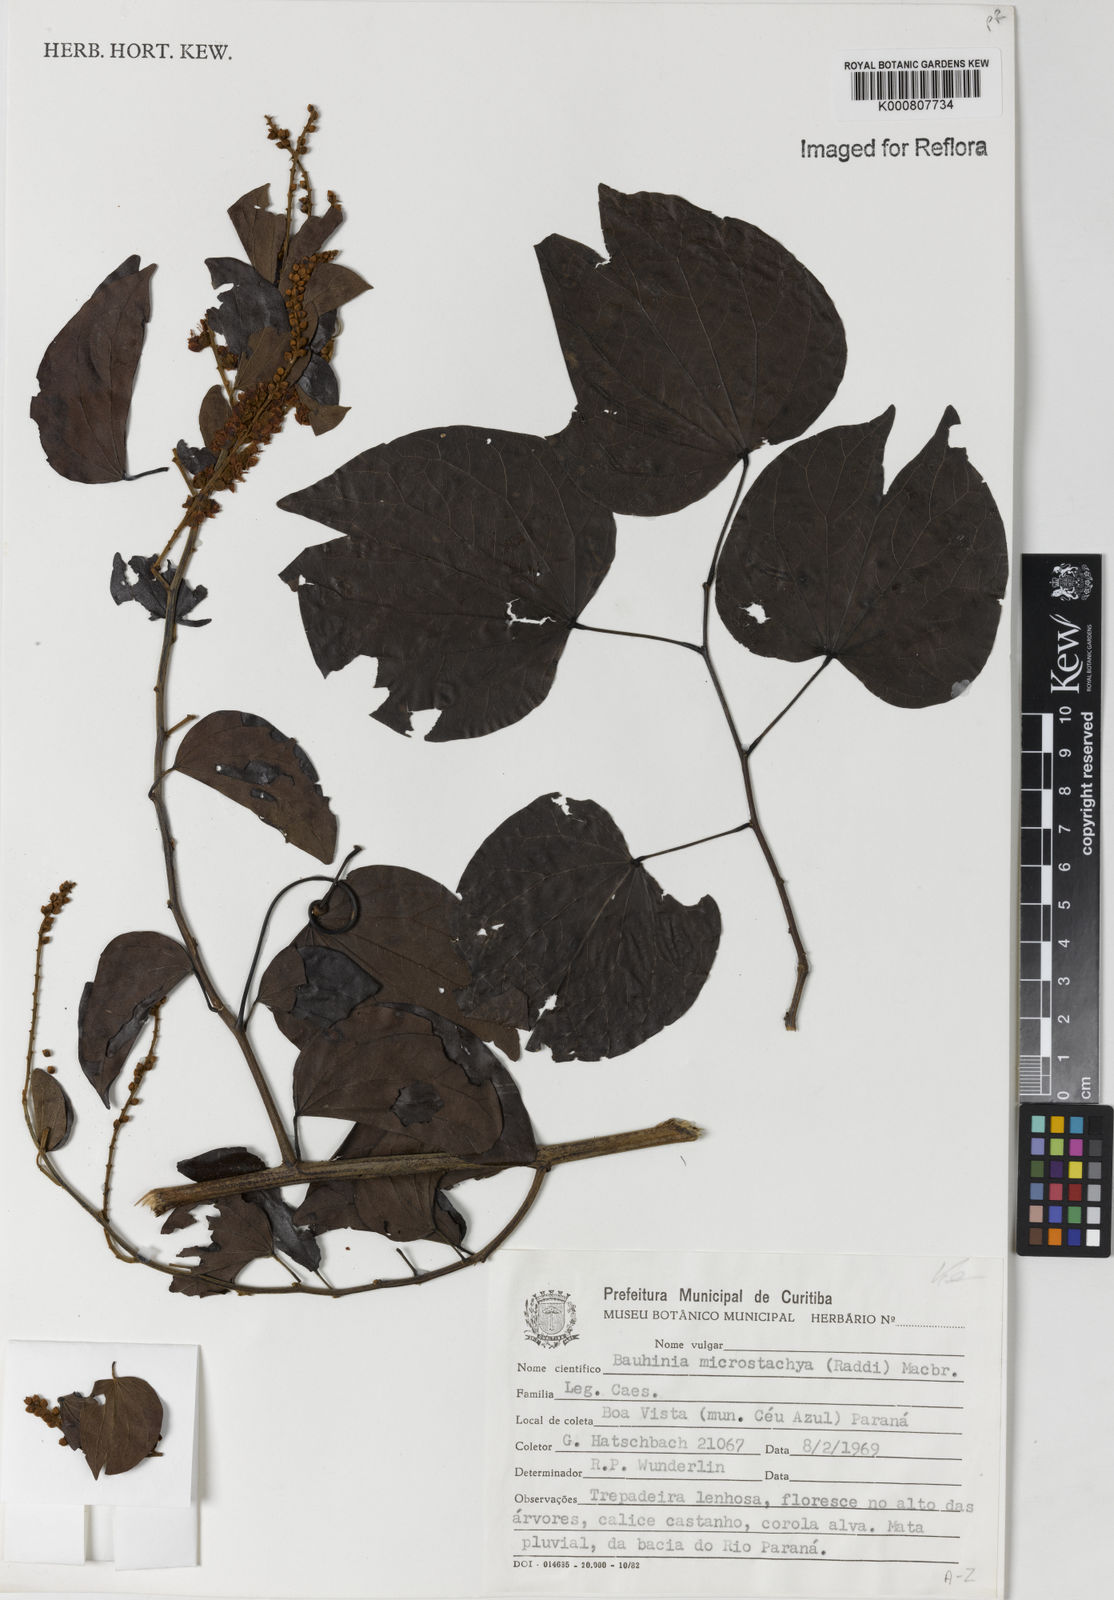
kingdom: Plantae
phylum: Tracheophyta
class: Magnoliopsida
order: Fabales
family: Fabaceae
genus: Schnella
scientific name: Schnella microstachya
